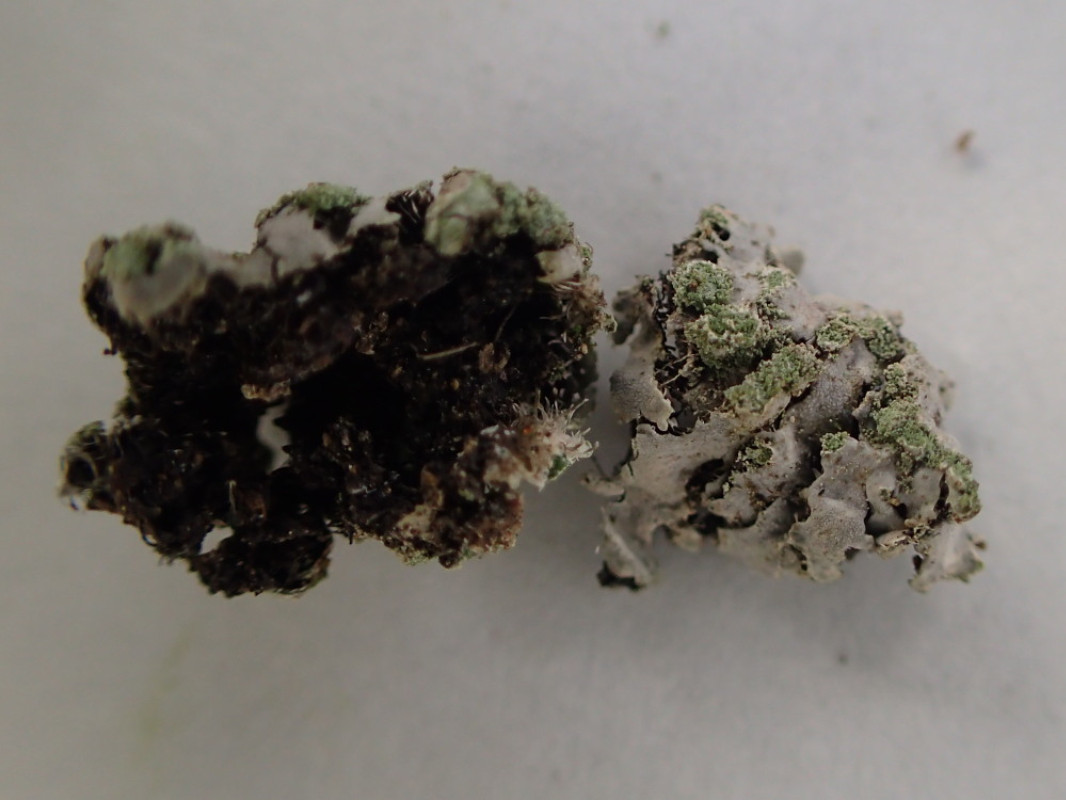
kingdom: Fungi
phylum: Ascomycota
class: Lecanoromycetes
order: Caliciales
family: Physciaceae
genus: Phaeophyscia
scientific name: Phaeophyscia orbicularis
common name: grågrøn rosetlav
